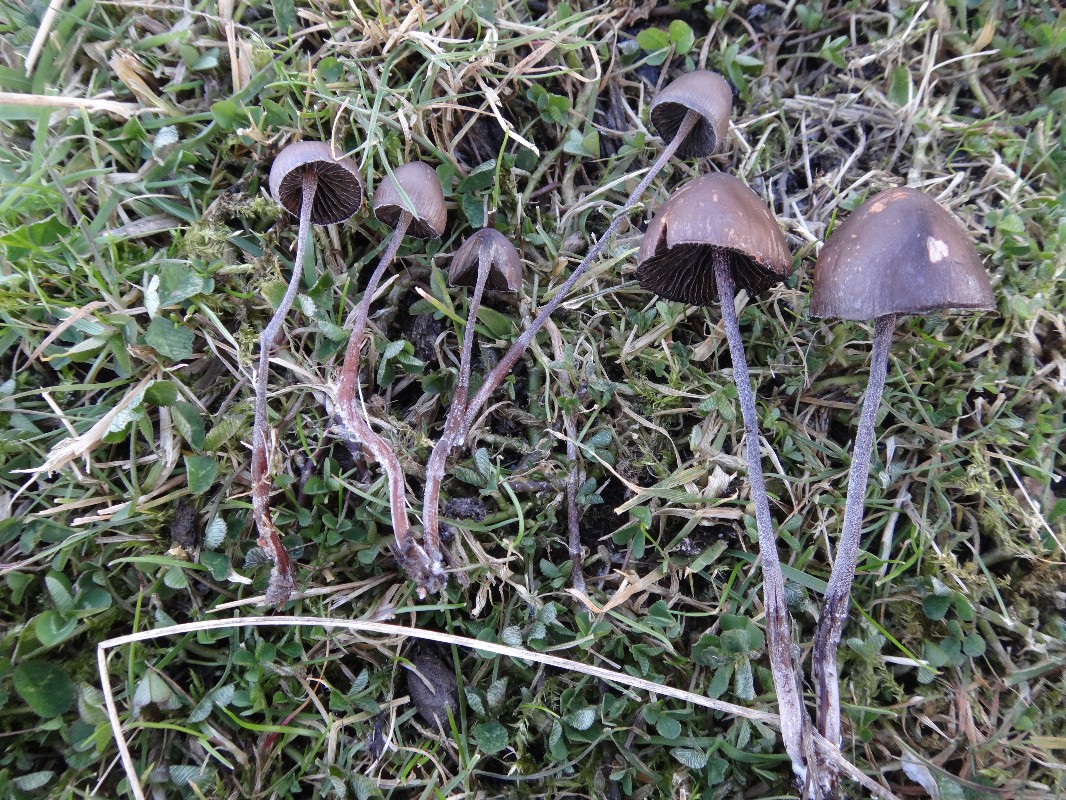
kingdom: Fungi
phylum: Basidiomycota
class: Agaricomycetes
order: Agaricales
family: Bolbitiaceae
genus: Panaeolus
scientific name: Panaeolus acuminatus
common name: høj glanshat
